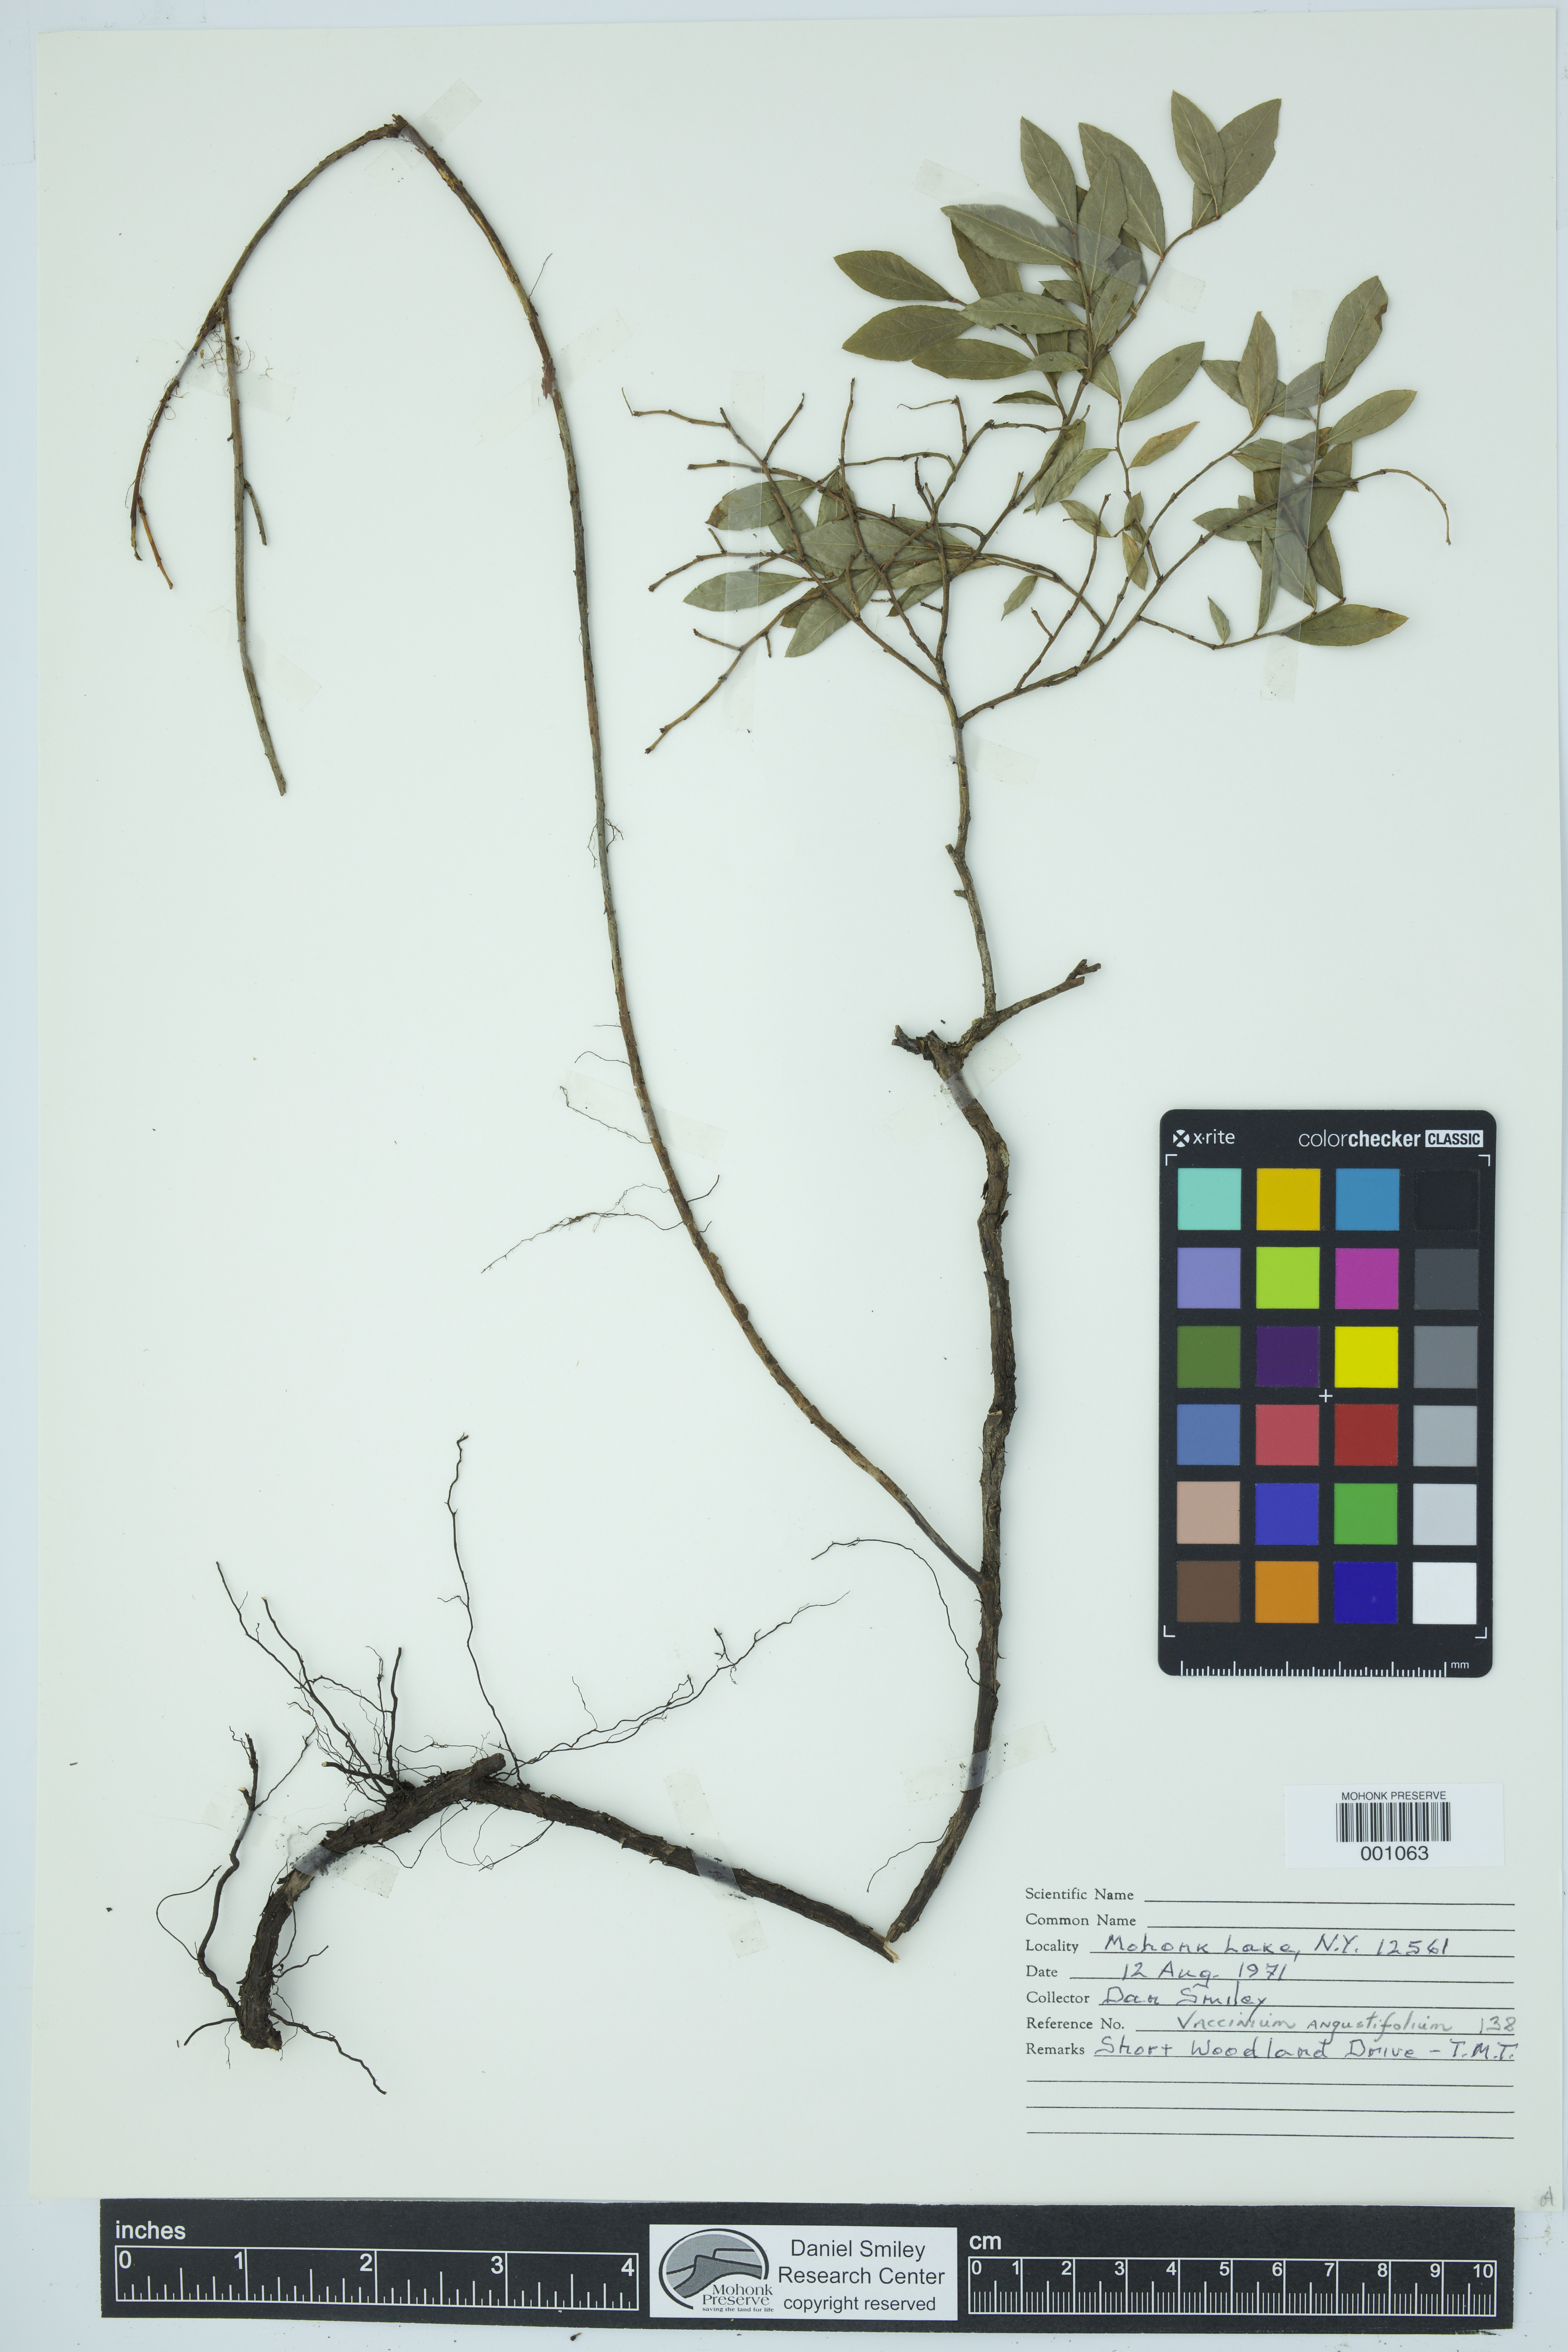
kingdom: Plantae
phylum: Tracheophyta
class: Magnoliopsida
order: Ericales
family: Ericaceae
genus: Vaccinium
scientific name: Vaccinium angustifolium
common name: Early lowbush blueberry
